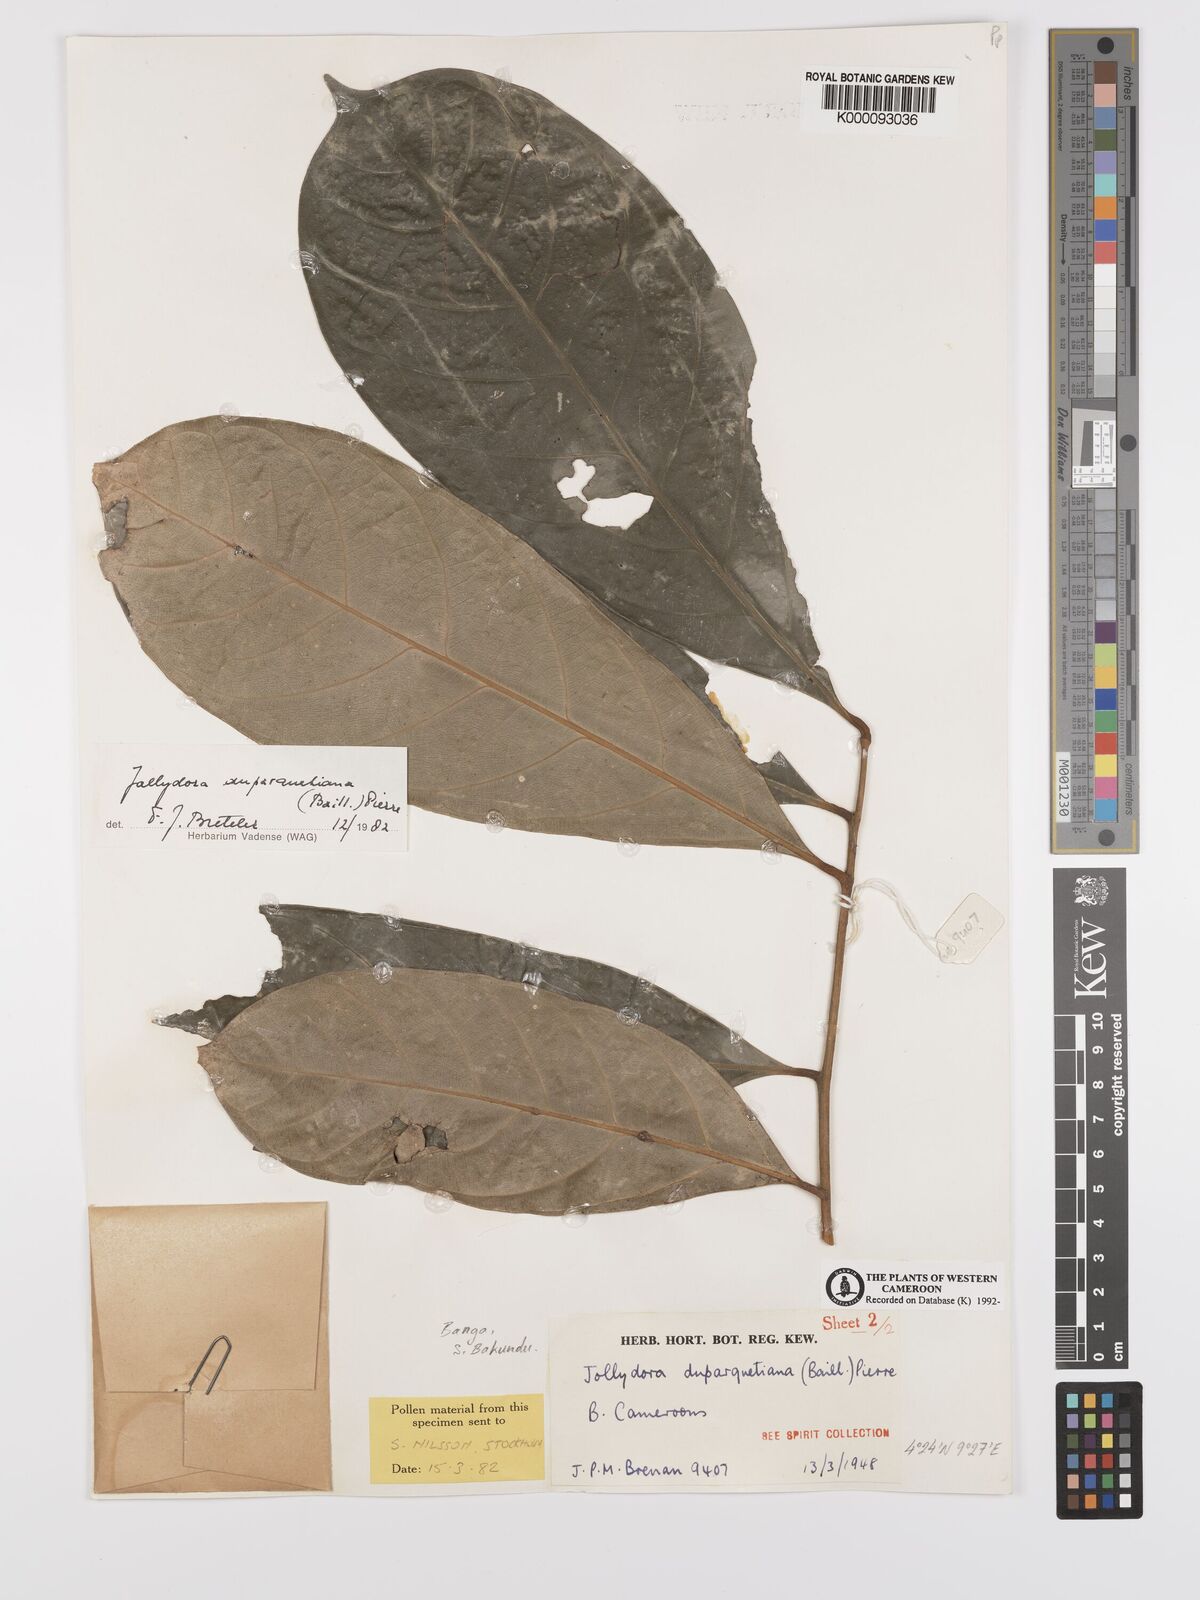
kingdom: Plantae
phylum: Tracheophyta
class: Magnoliopsida
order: Oxalidales
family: Connaraceae
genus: Jollydora
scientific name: Jollydora duparquetiana
